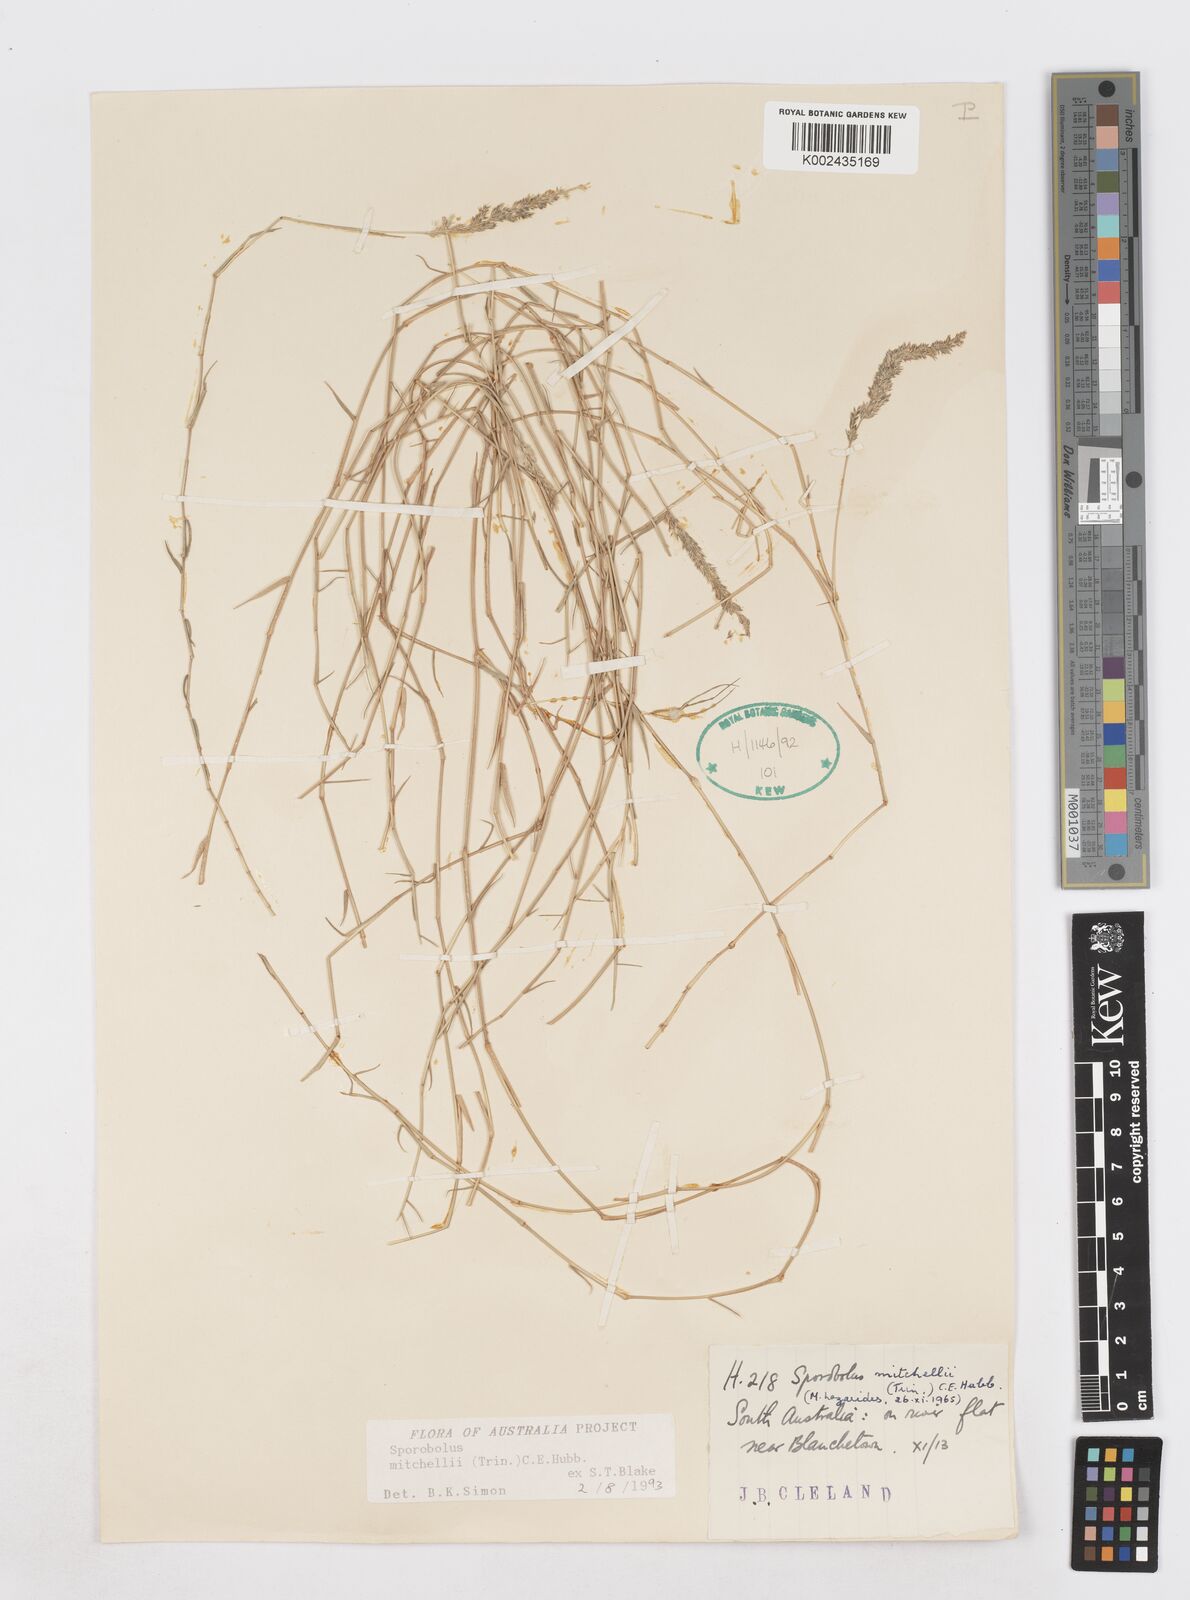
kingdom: Plantae
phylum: Tracheophyta
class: Liliopsida
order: Poales
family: Poaceae
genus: Sporobolus
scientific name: Sporobolus mitchellii
